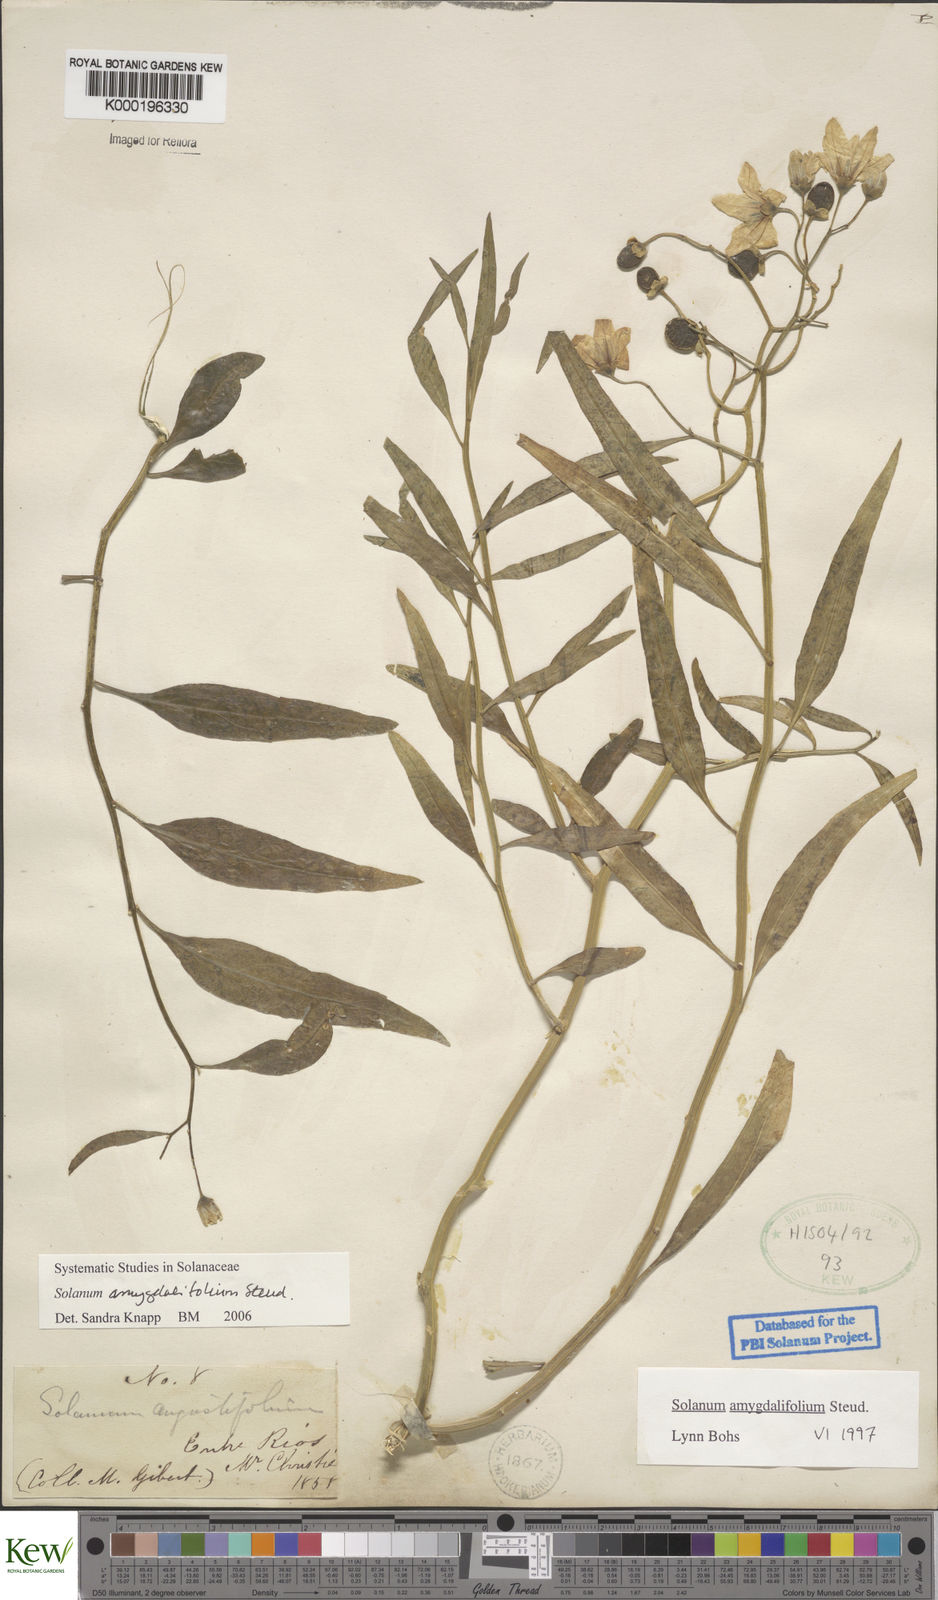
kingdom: Plantae
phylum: Tracheophyta
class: Magnoliopsida
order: Solanales
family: Solanaceae
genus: Solanum
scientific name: Solanum amygdalifolium
